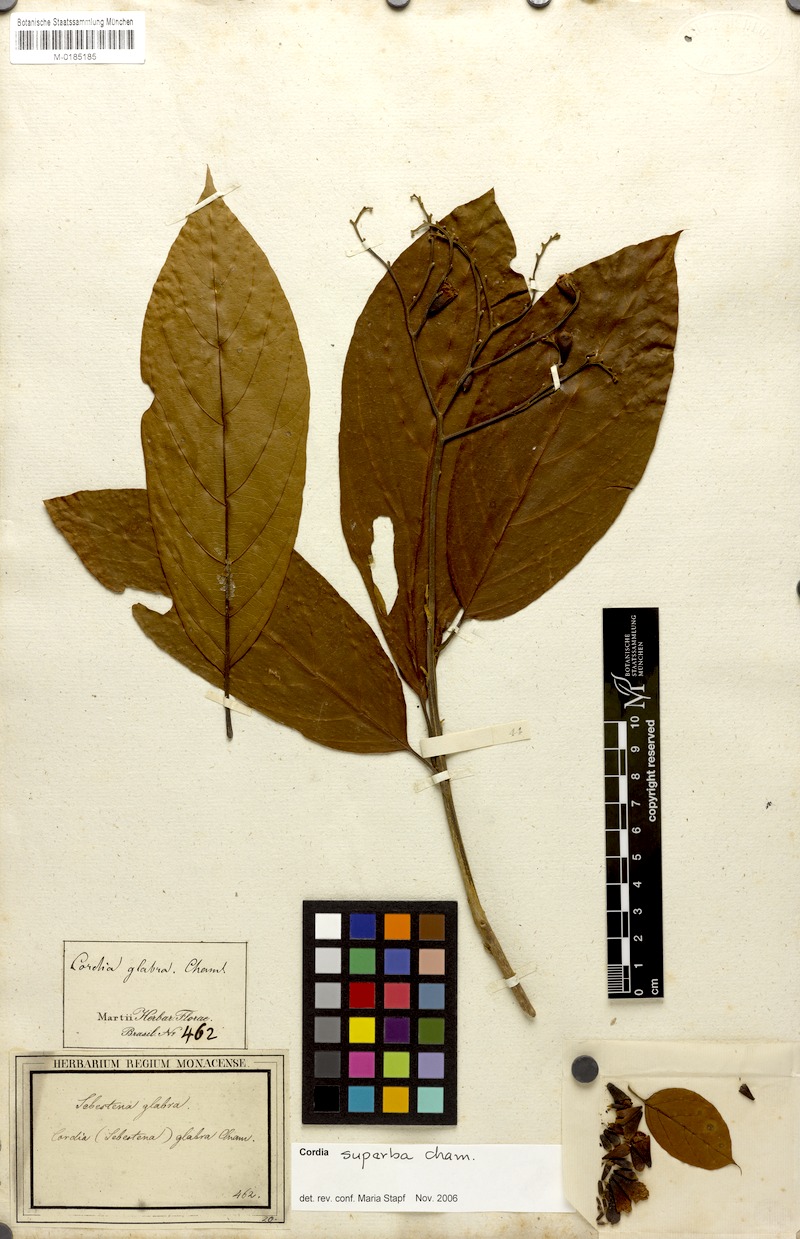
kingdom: Plantae
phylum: Tracheophyta
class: Magnoliopsida
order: Boraginales
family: Cordiaceae
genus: Cordia
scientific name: Cordia superba
